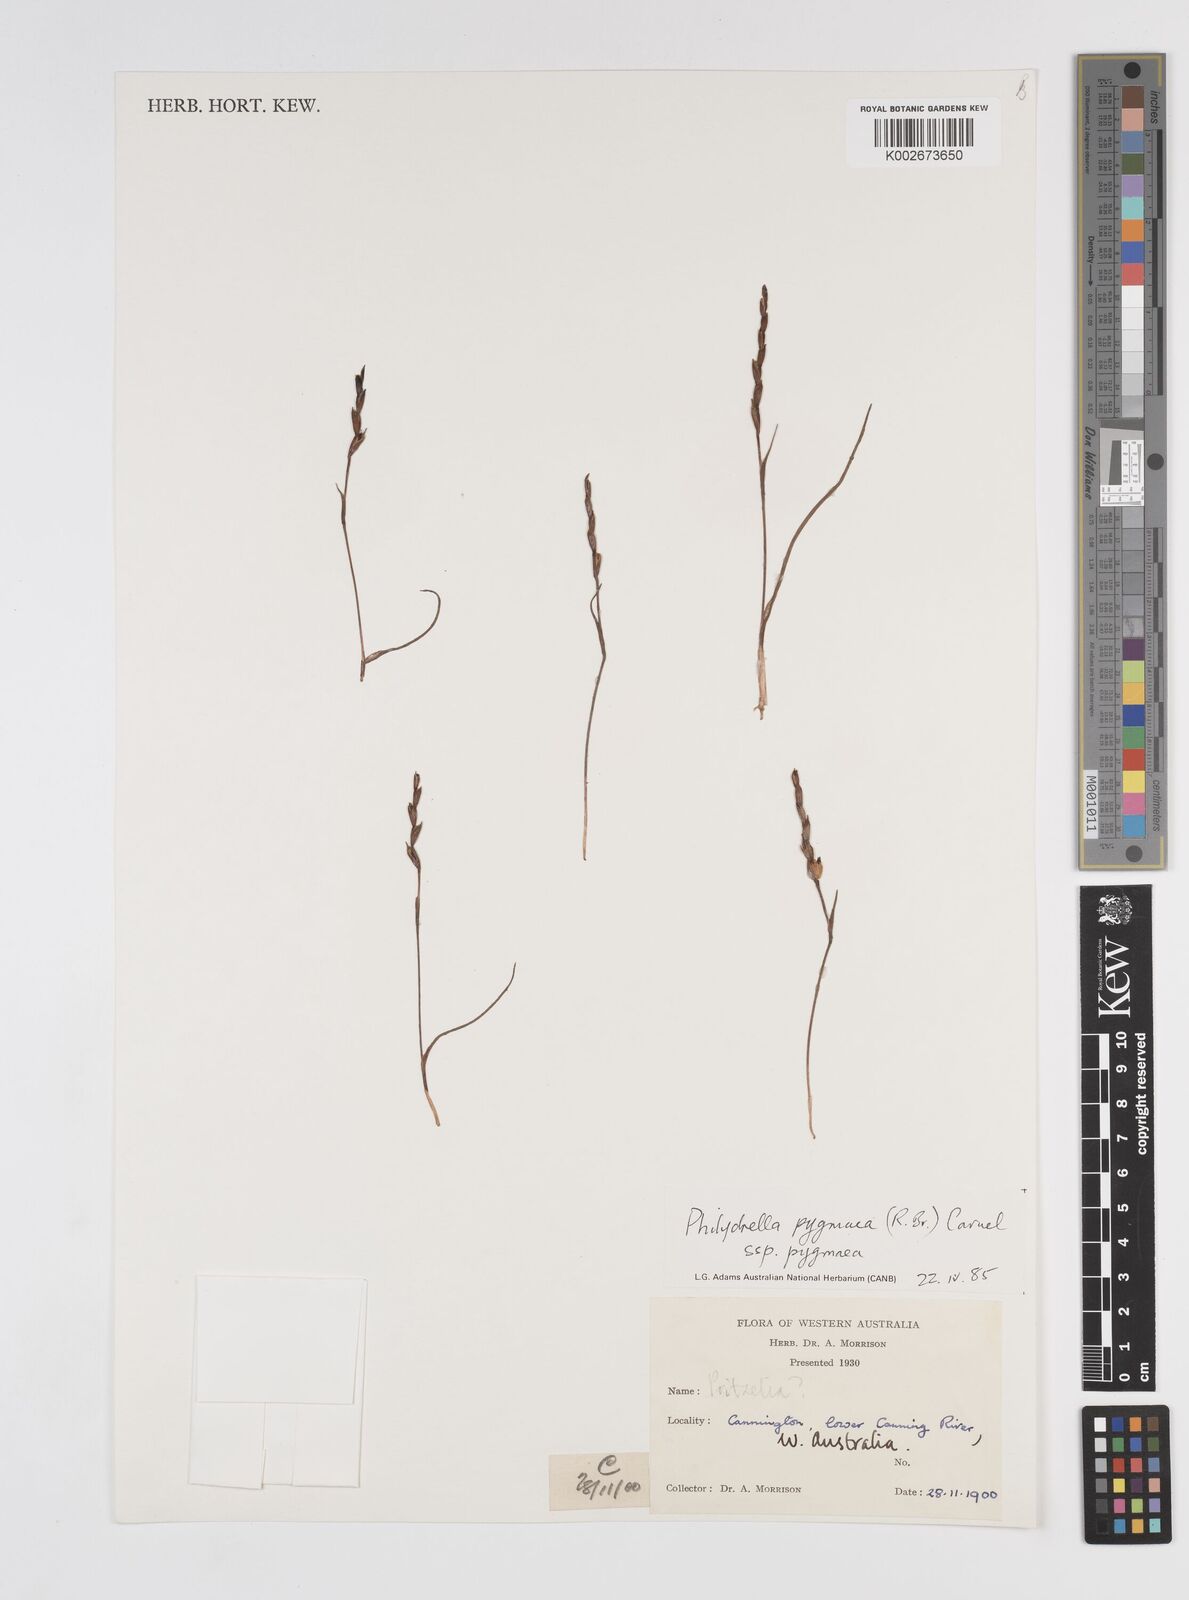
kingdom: Plantae
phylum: Tracheophyta
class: Liliopsida
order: Commelinales
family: Philydraceae
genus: Philydrella
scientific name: Philydrella pygmaea
